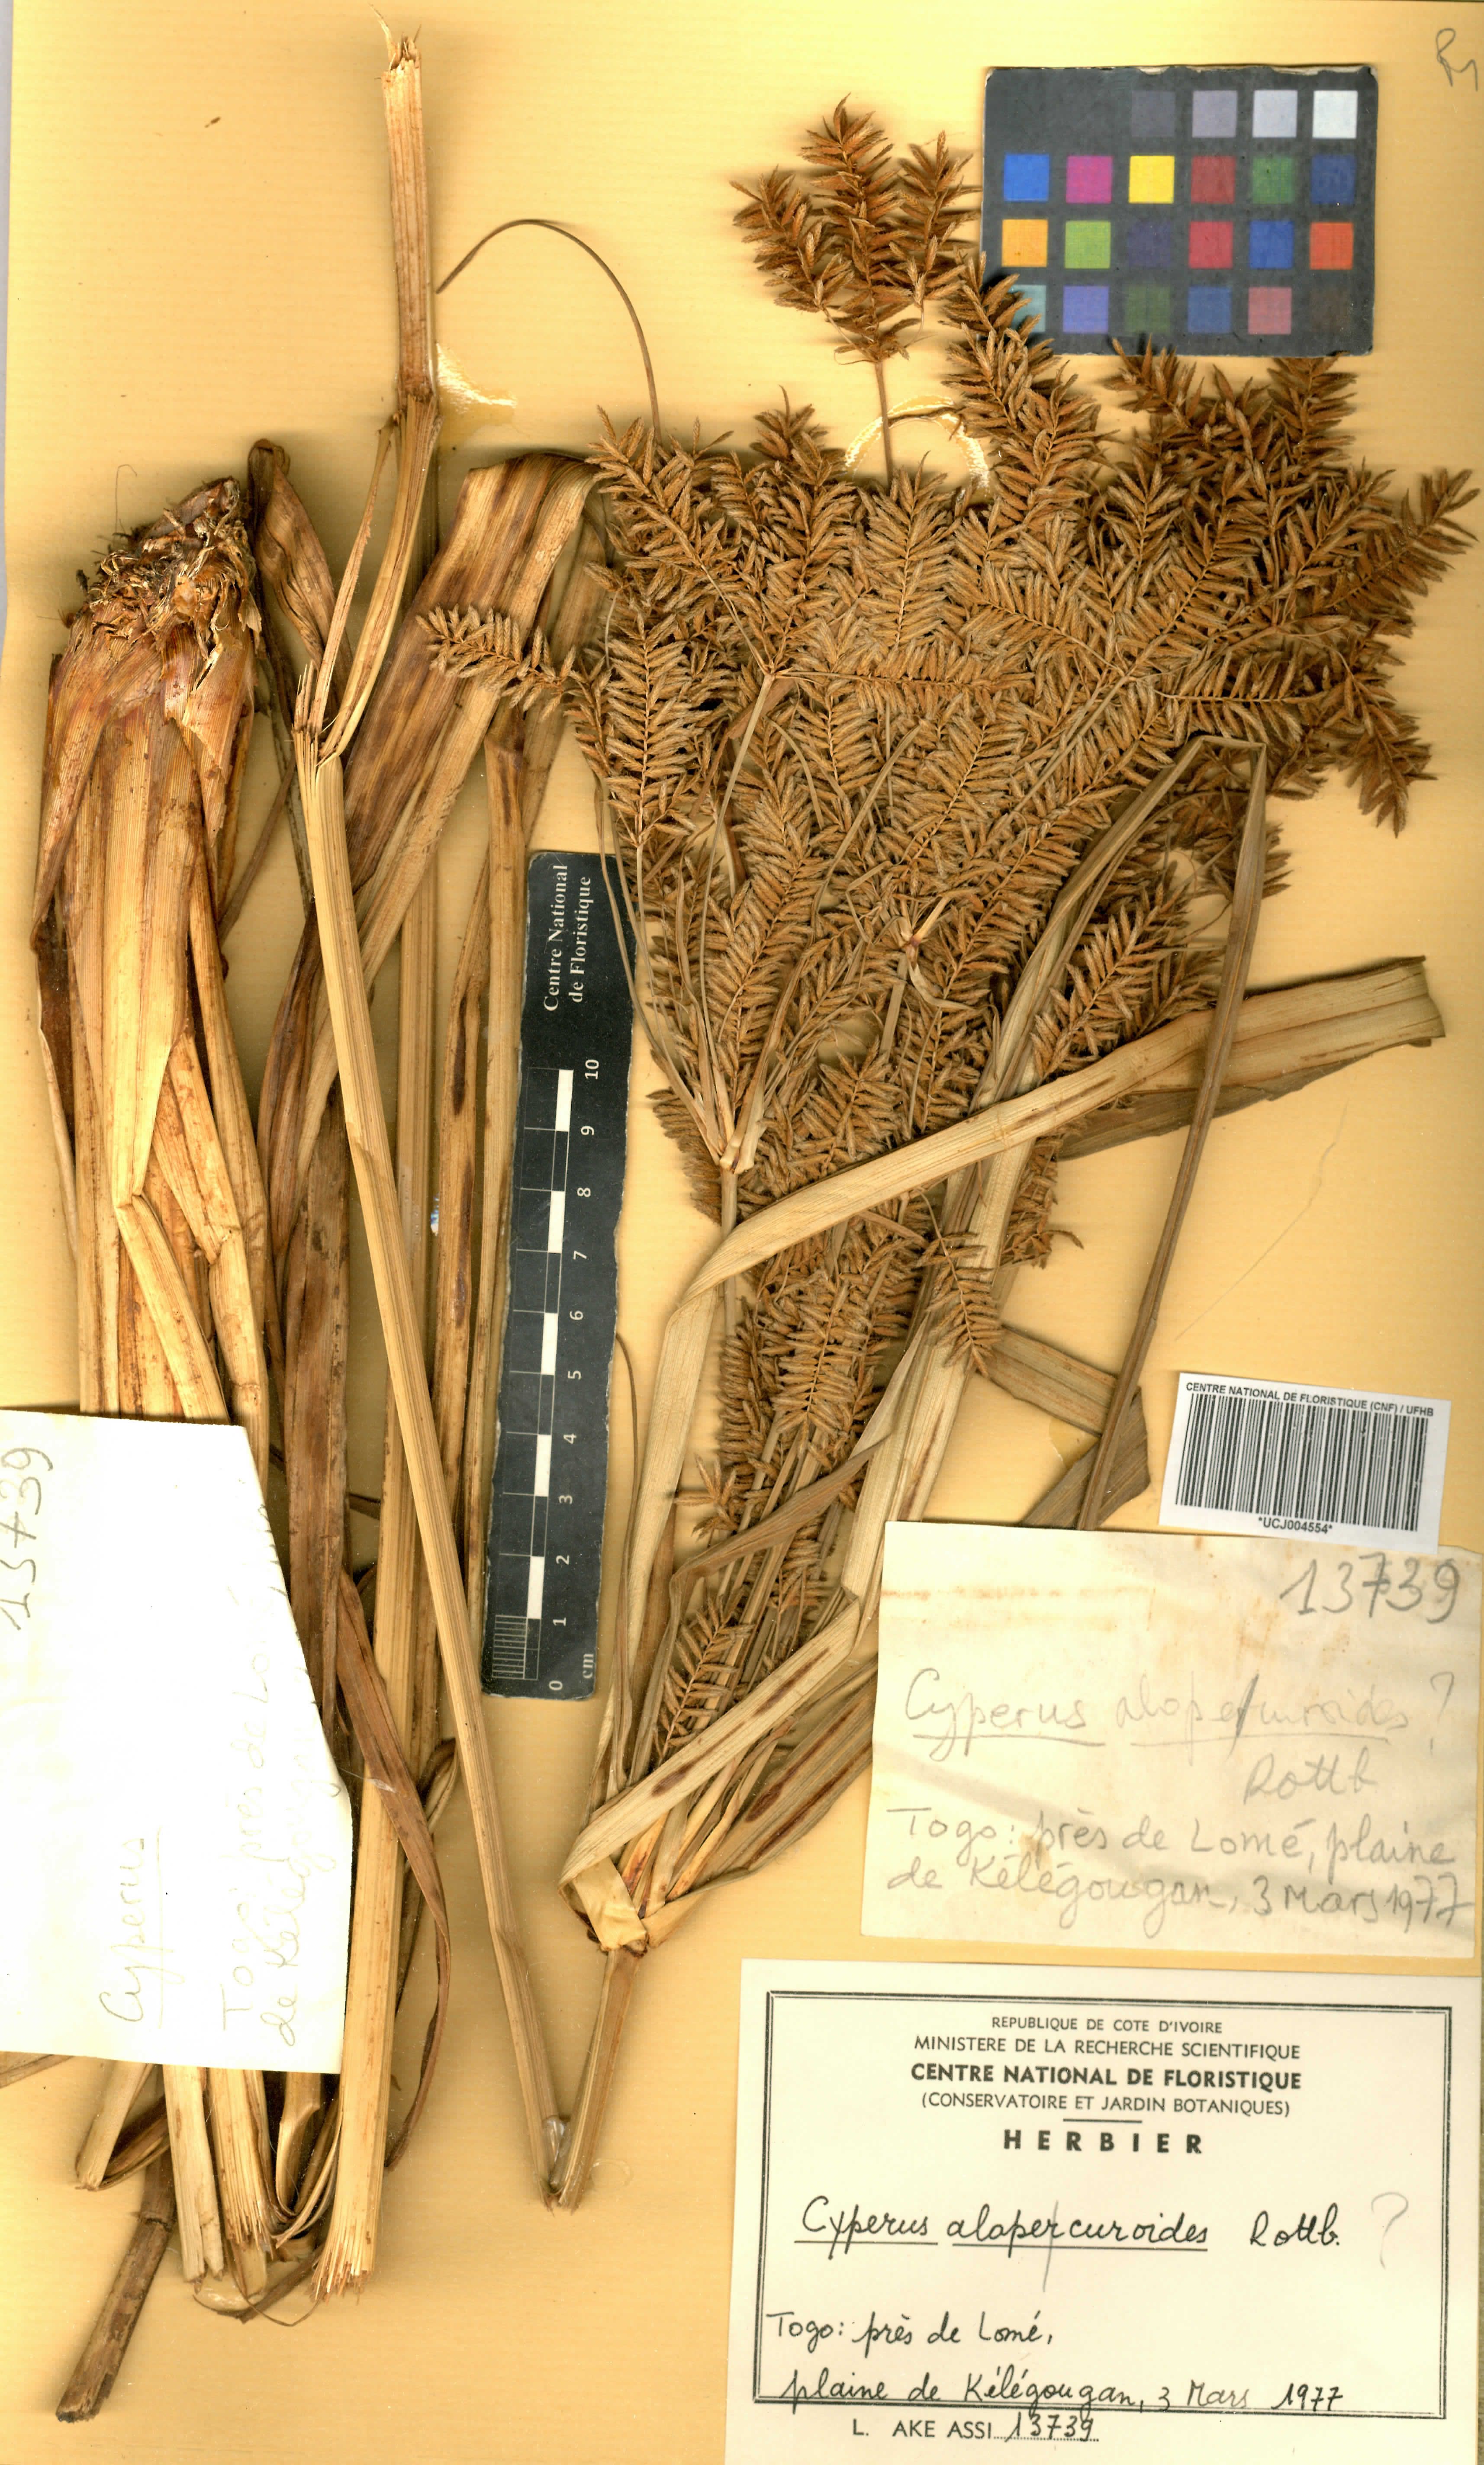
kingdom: Plantae
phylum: Tracheophyta
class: Liliopsida
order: Poales
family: Cyperaceae
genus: Cyperus
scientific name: Cyperus alopecuroides
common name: Foxtail flatsedge
